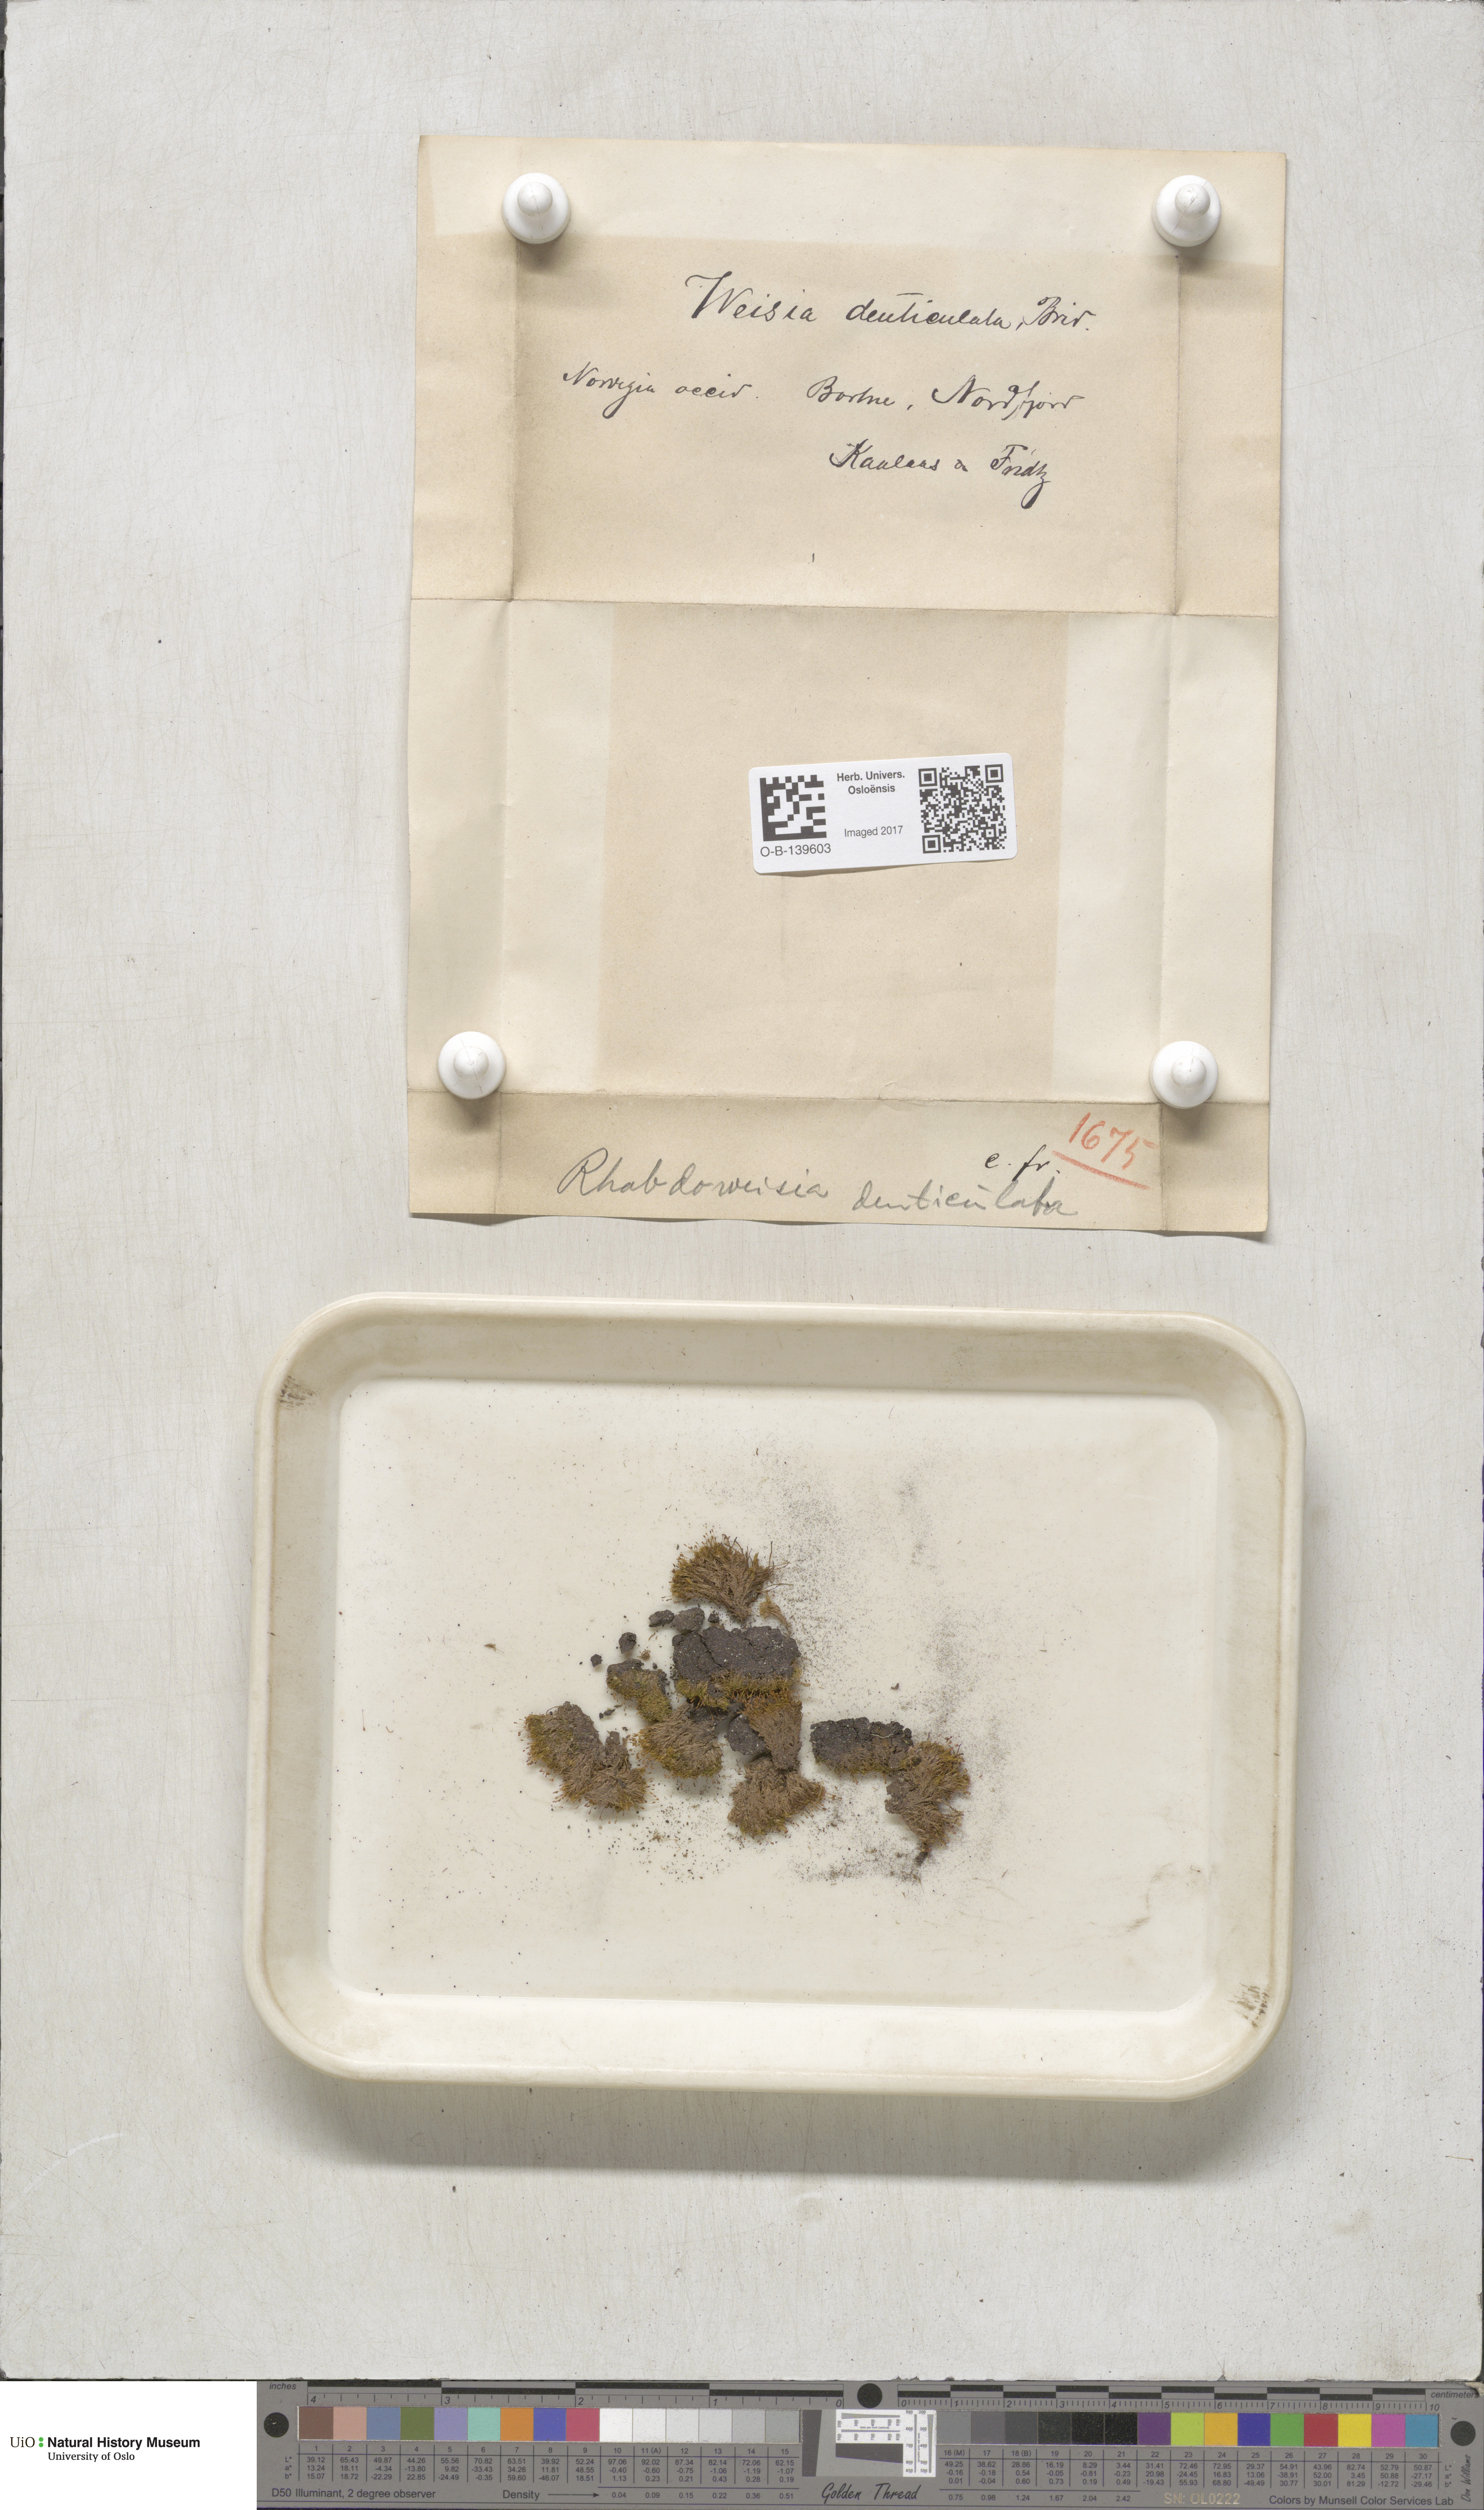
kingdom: Plantae
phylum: Marchantiophyta
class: Jungermanniopsida
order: Jungermanniales
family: Geocalycaceae
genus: Geocalyx
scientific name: Geocalyx graveolens
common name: Turps pouchwort
